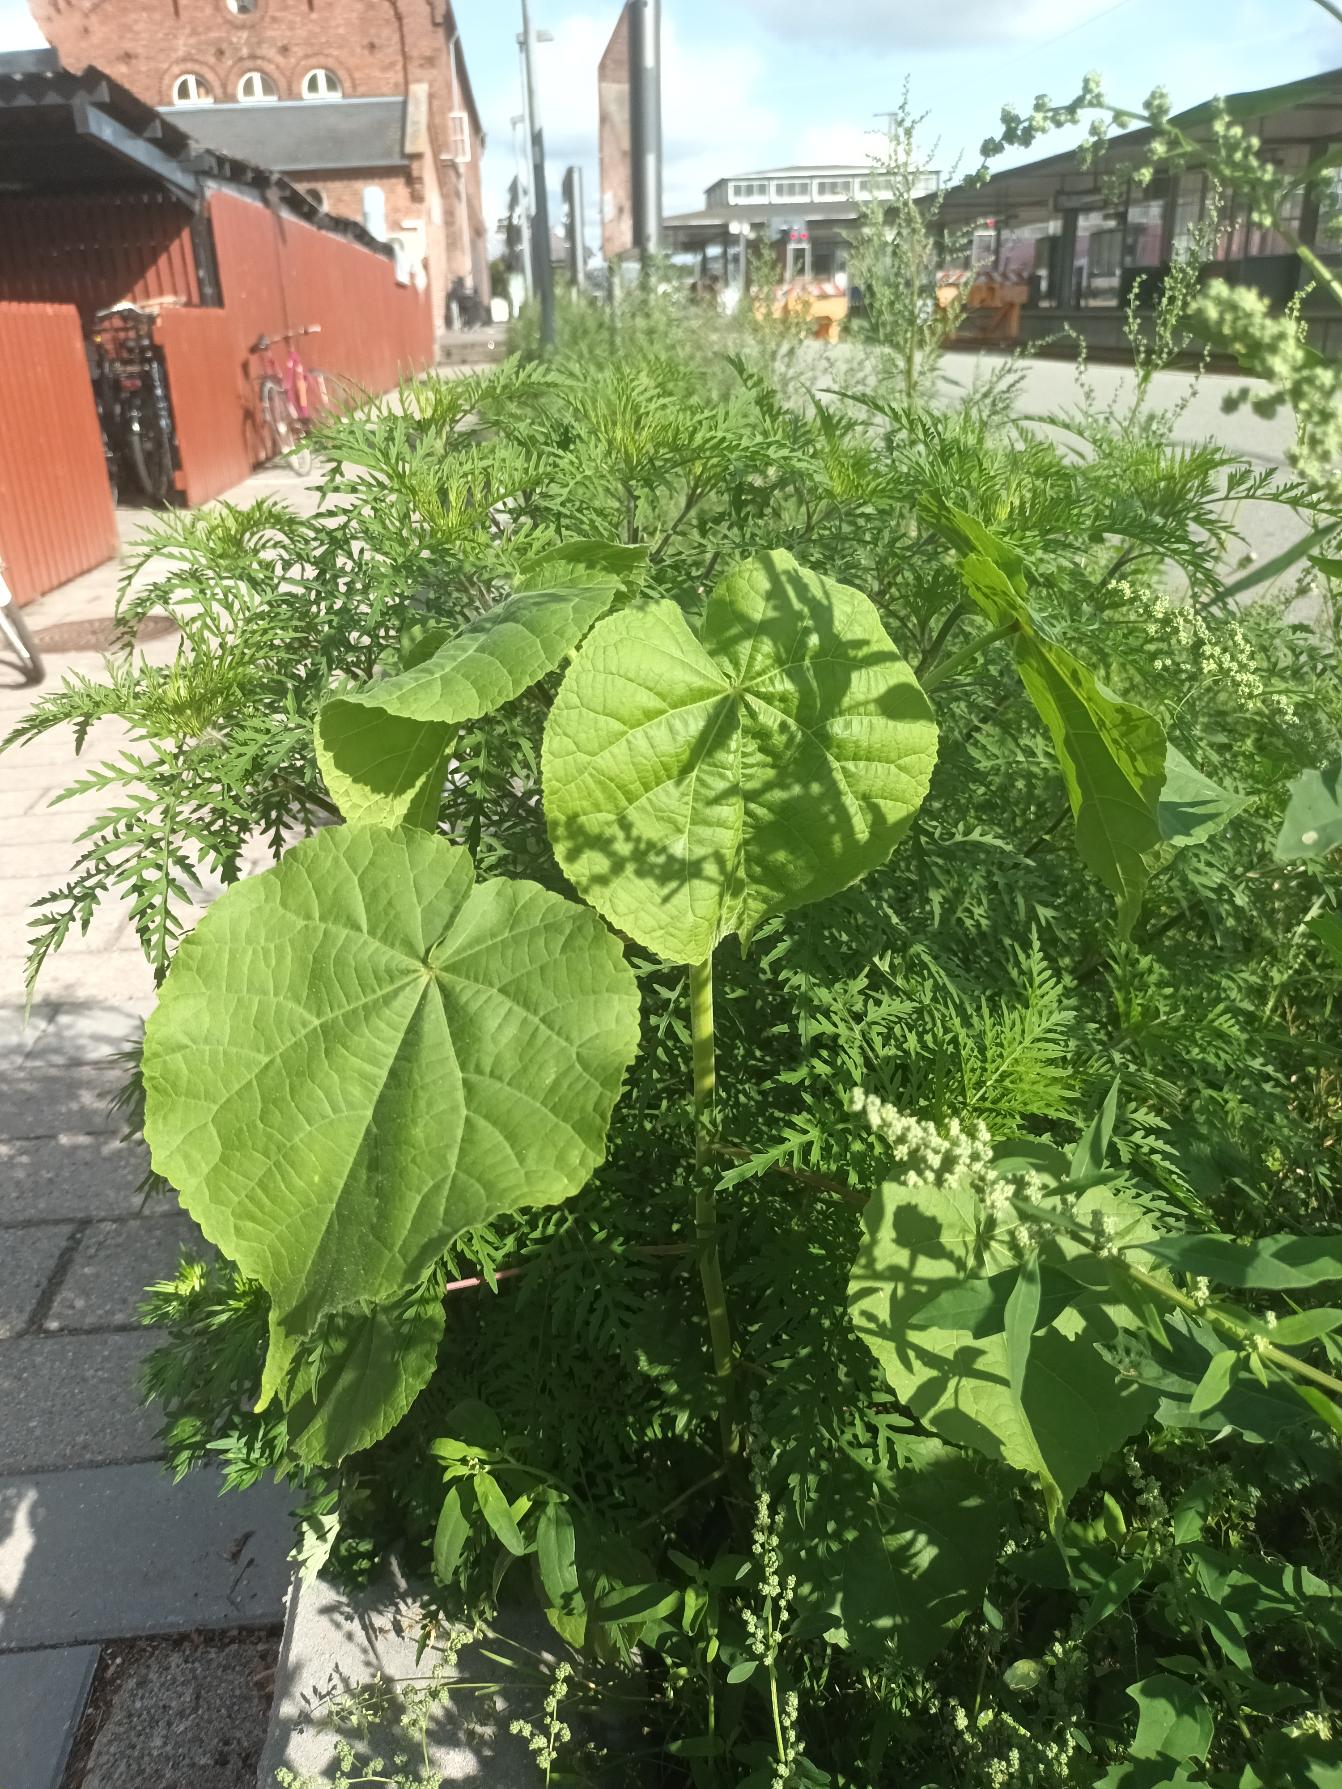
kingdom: Plantae
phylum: Tracheophyta
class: Magnoliopsida
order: Malvales
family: Malvaceae
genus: Abutilon
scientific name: Abutilon theophrasti
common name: Kinajute
